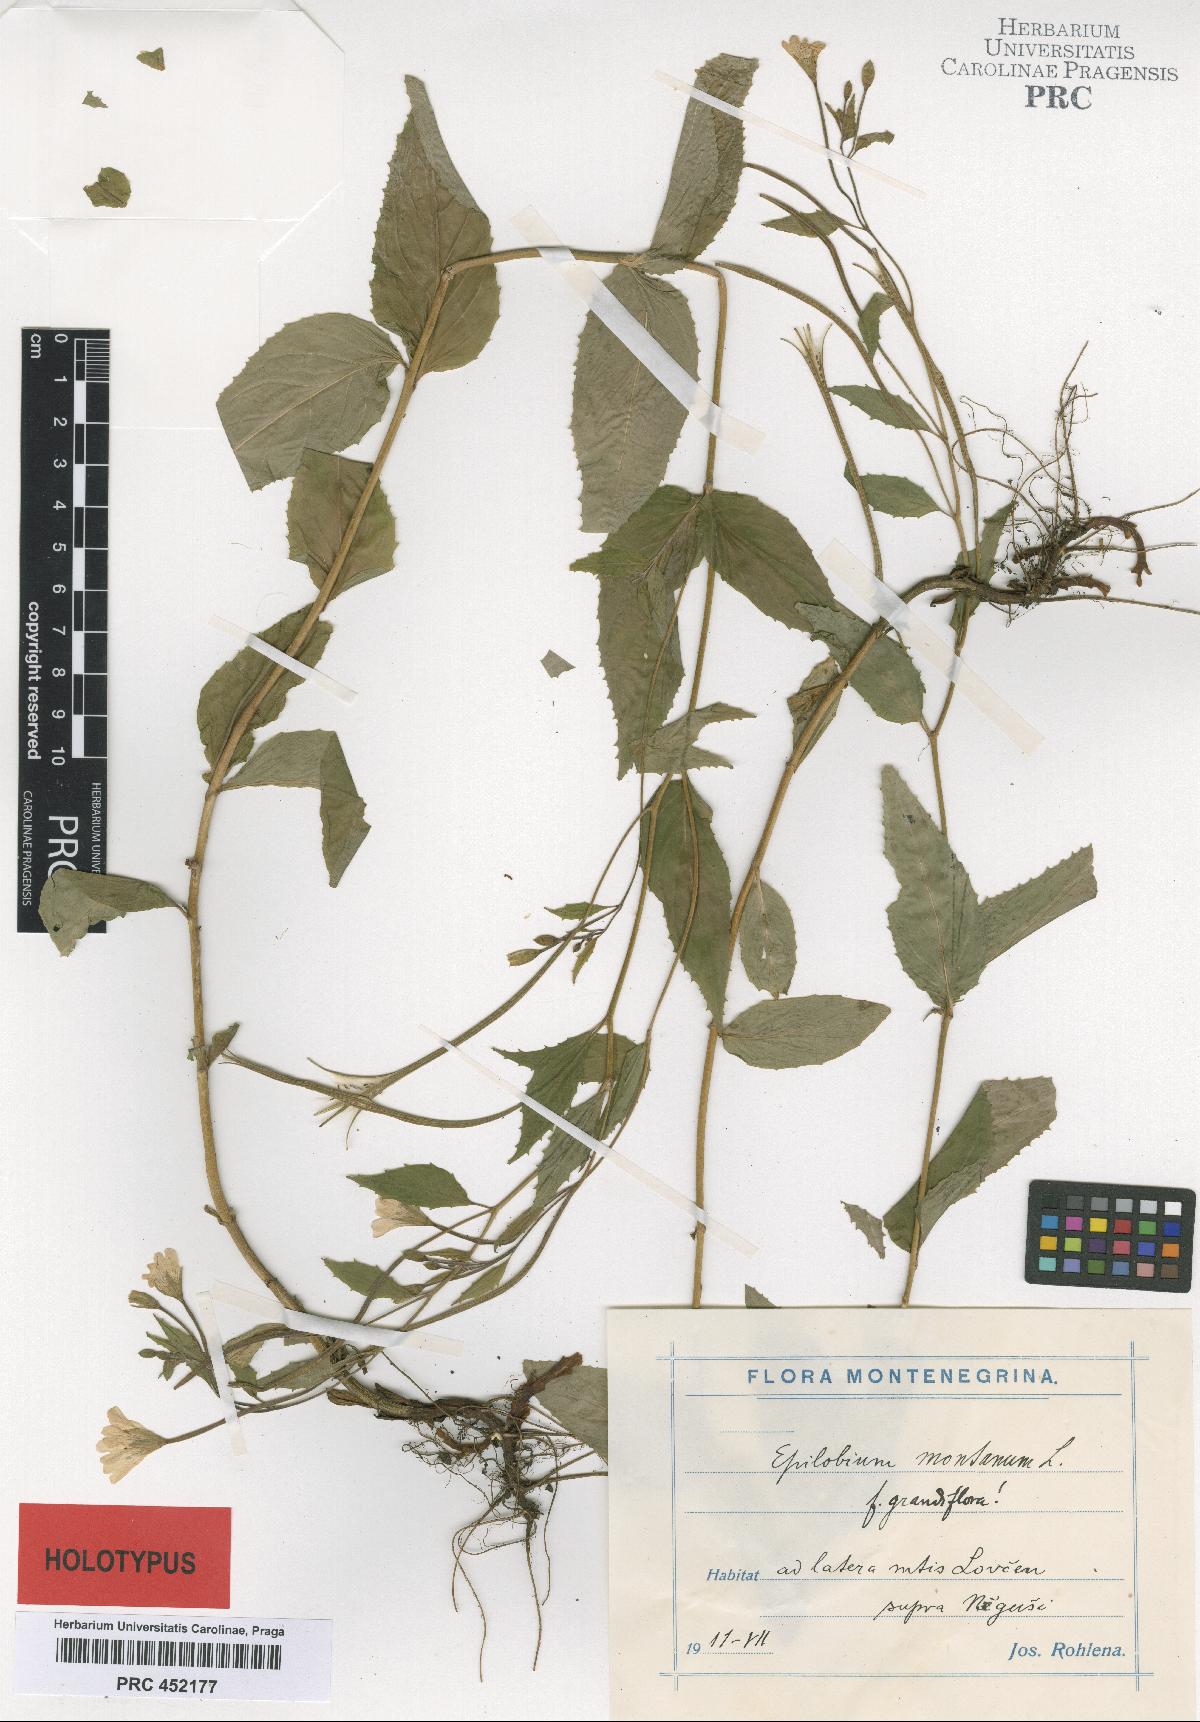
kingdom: Plantae
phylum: Tracheophyta
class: Magnoliopsida
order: Myrtales
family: Onagraceae
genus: Epilobium
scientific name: Epilobium montanum
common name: Broad-leaved willowherb
